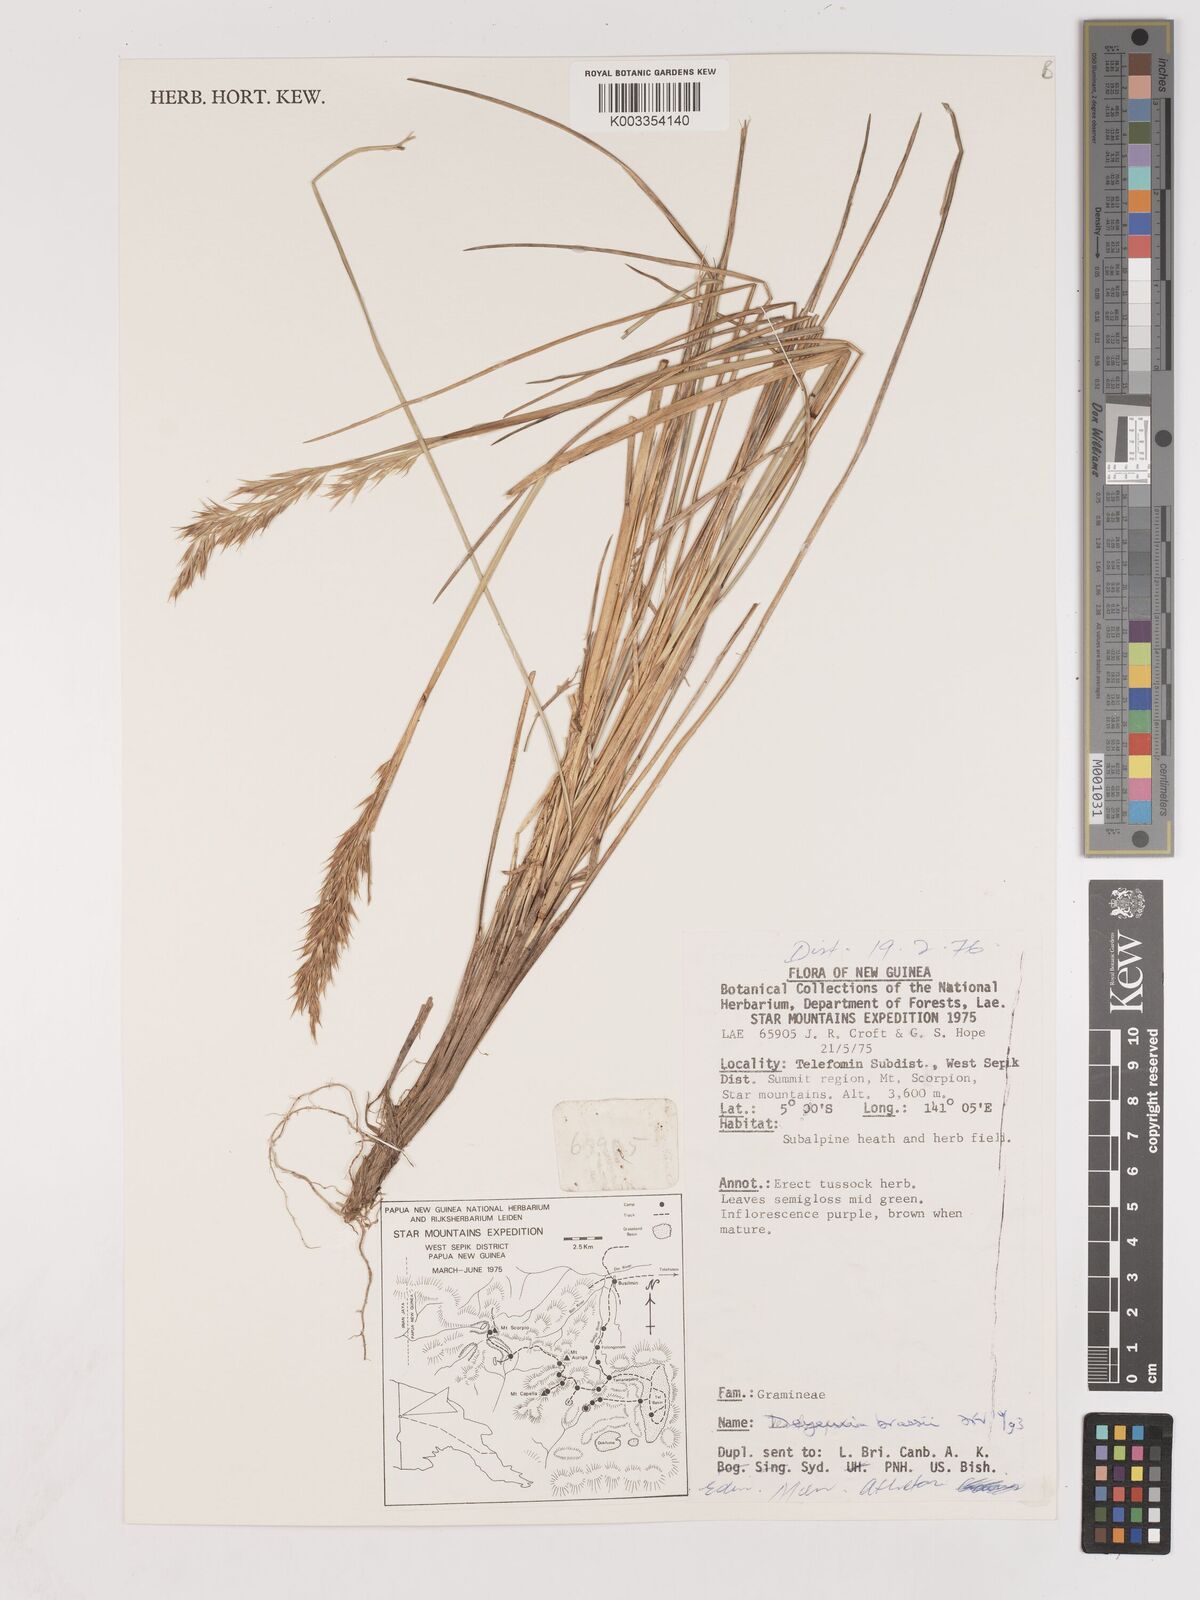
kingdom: Plantae
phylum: Tracheophyta
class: Liliopsida
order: Poales
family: Poaceae
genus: Calamagrostis
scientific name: Calamagrostis brassii
